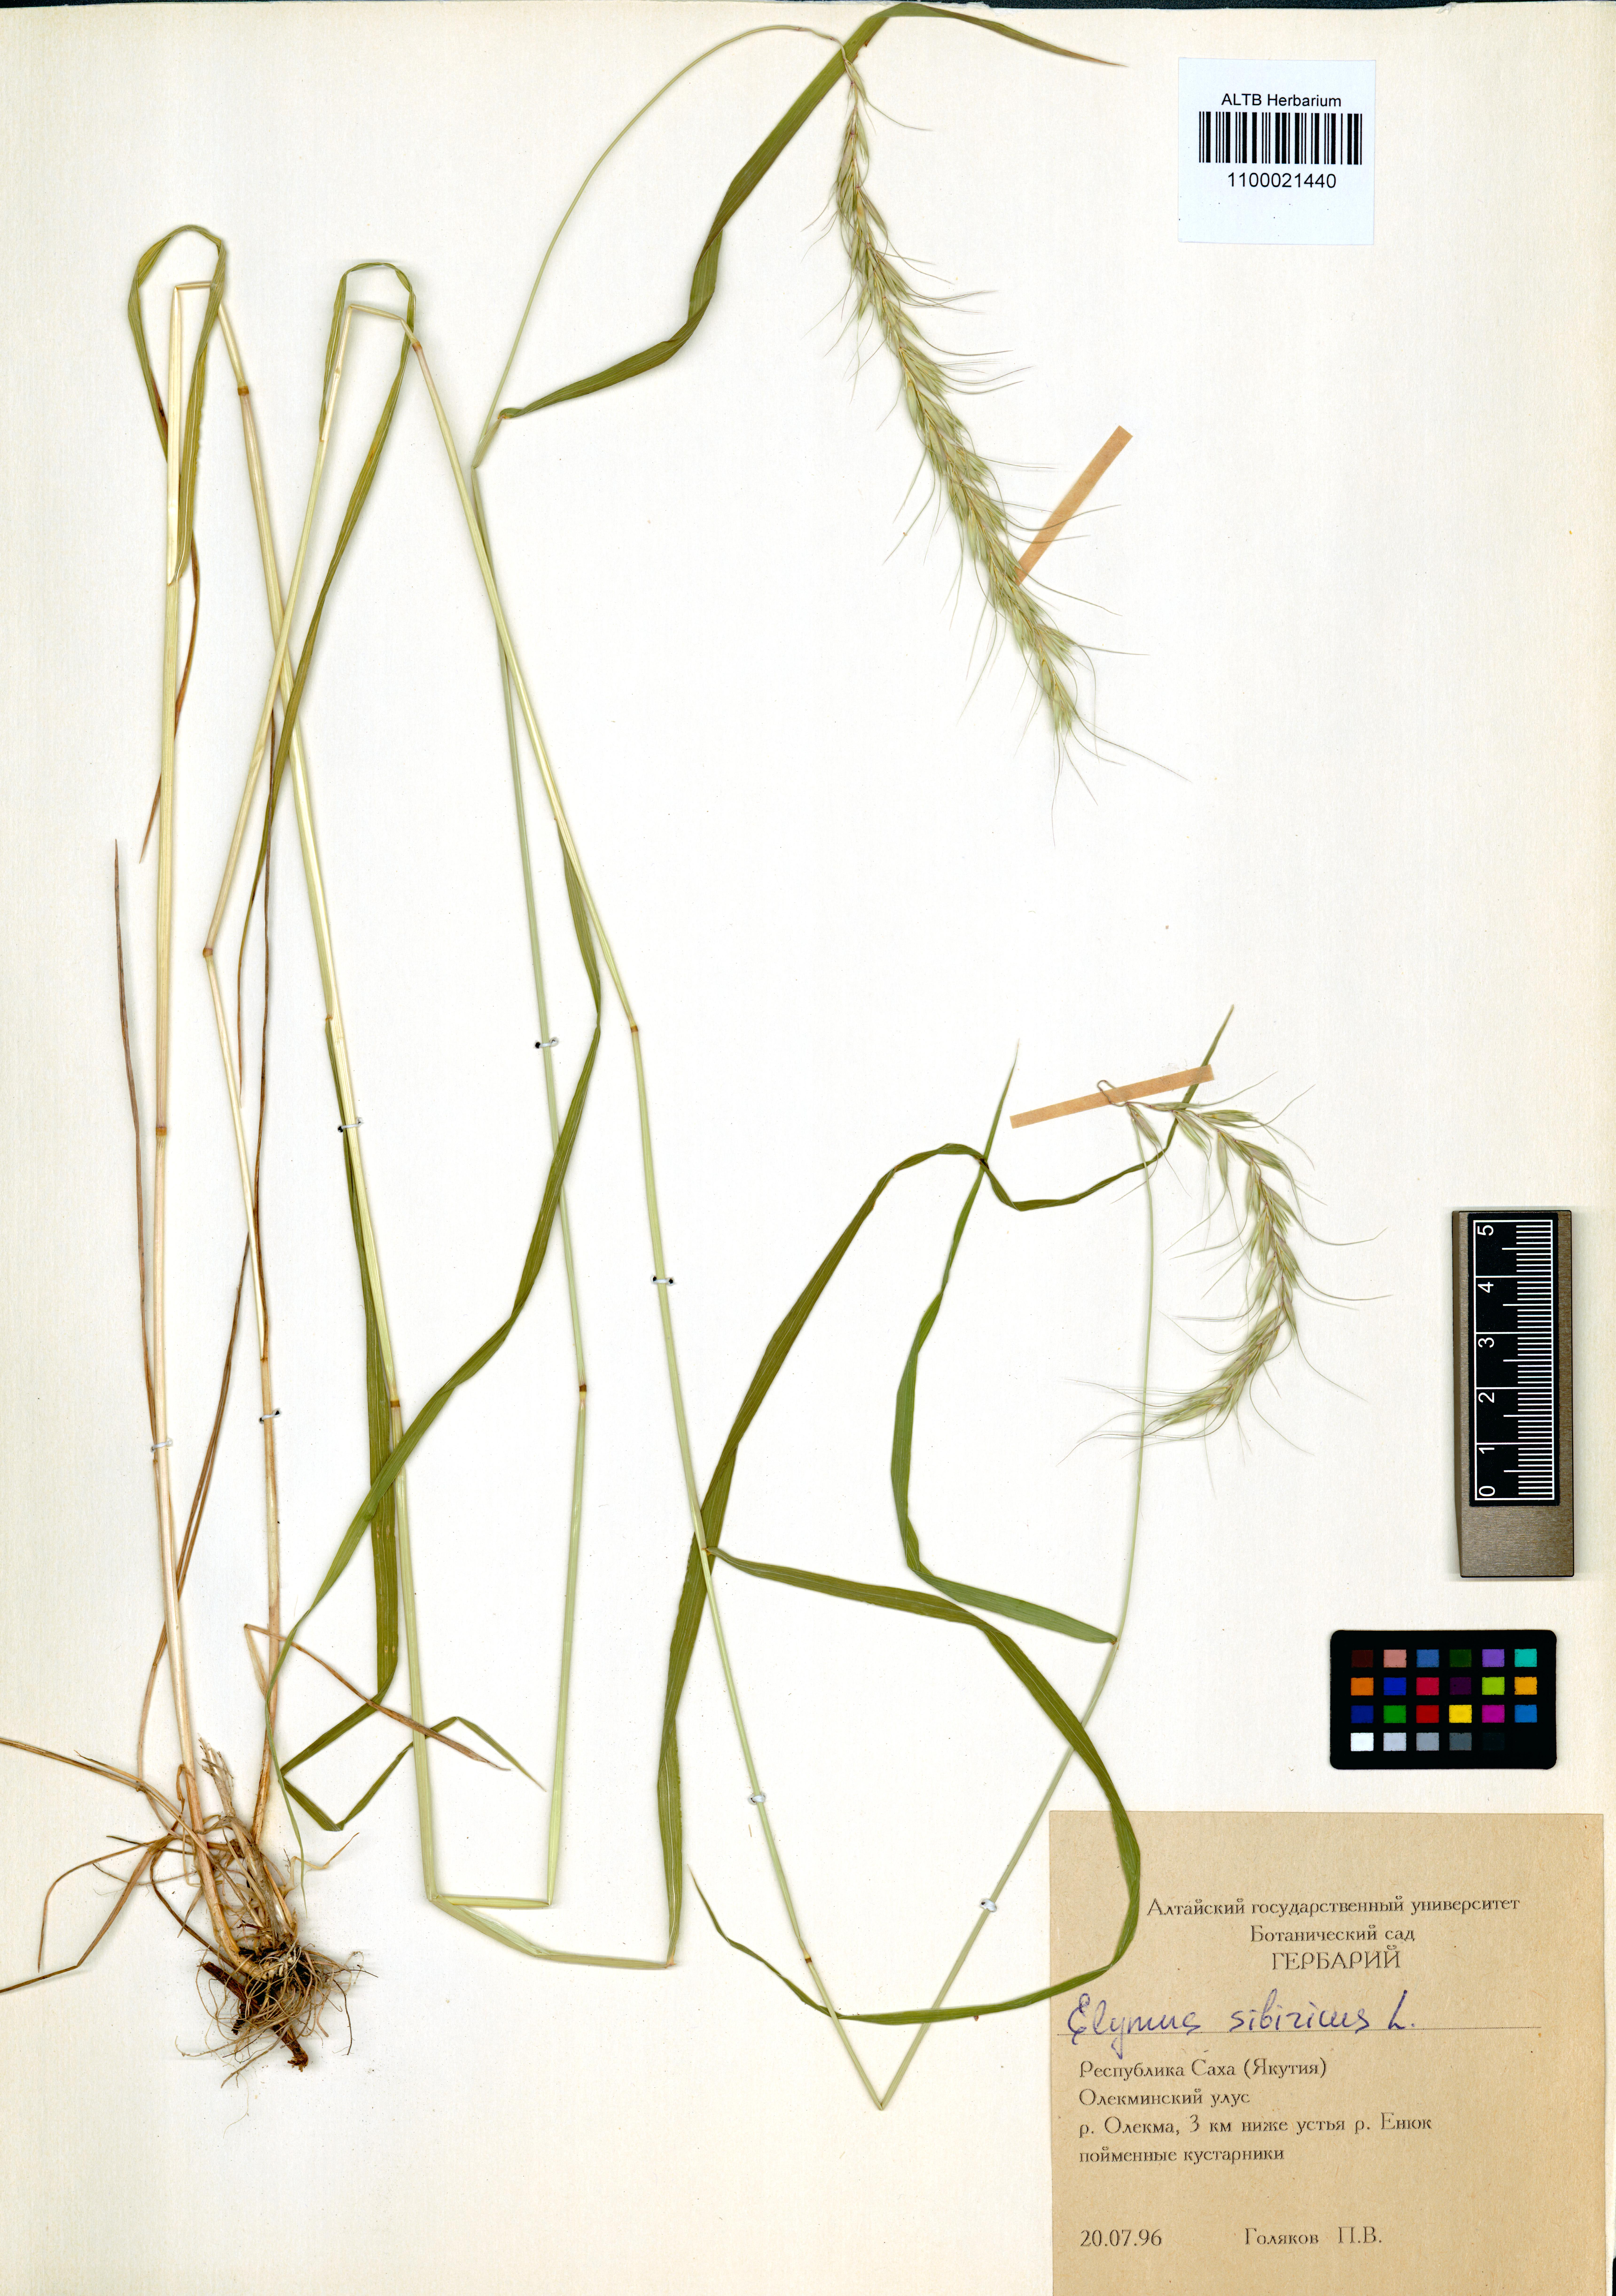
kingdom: Plantae
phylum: Tracheophyta
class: Liliopsida
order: Poales
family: Poaceae
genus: Elymus
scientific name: Elymus sibiricus
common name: Siberian wildrye
